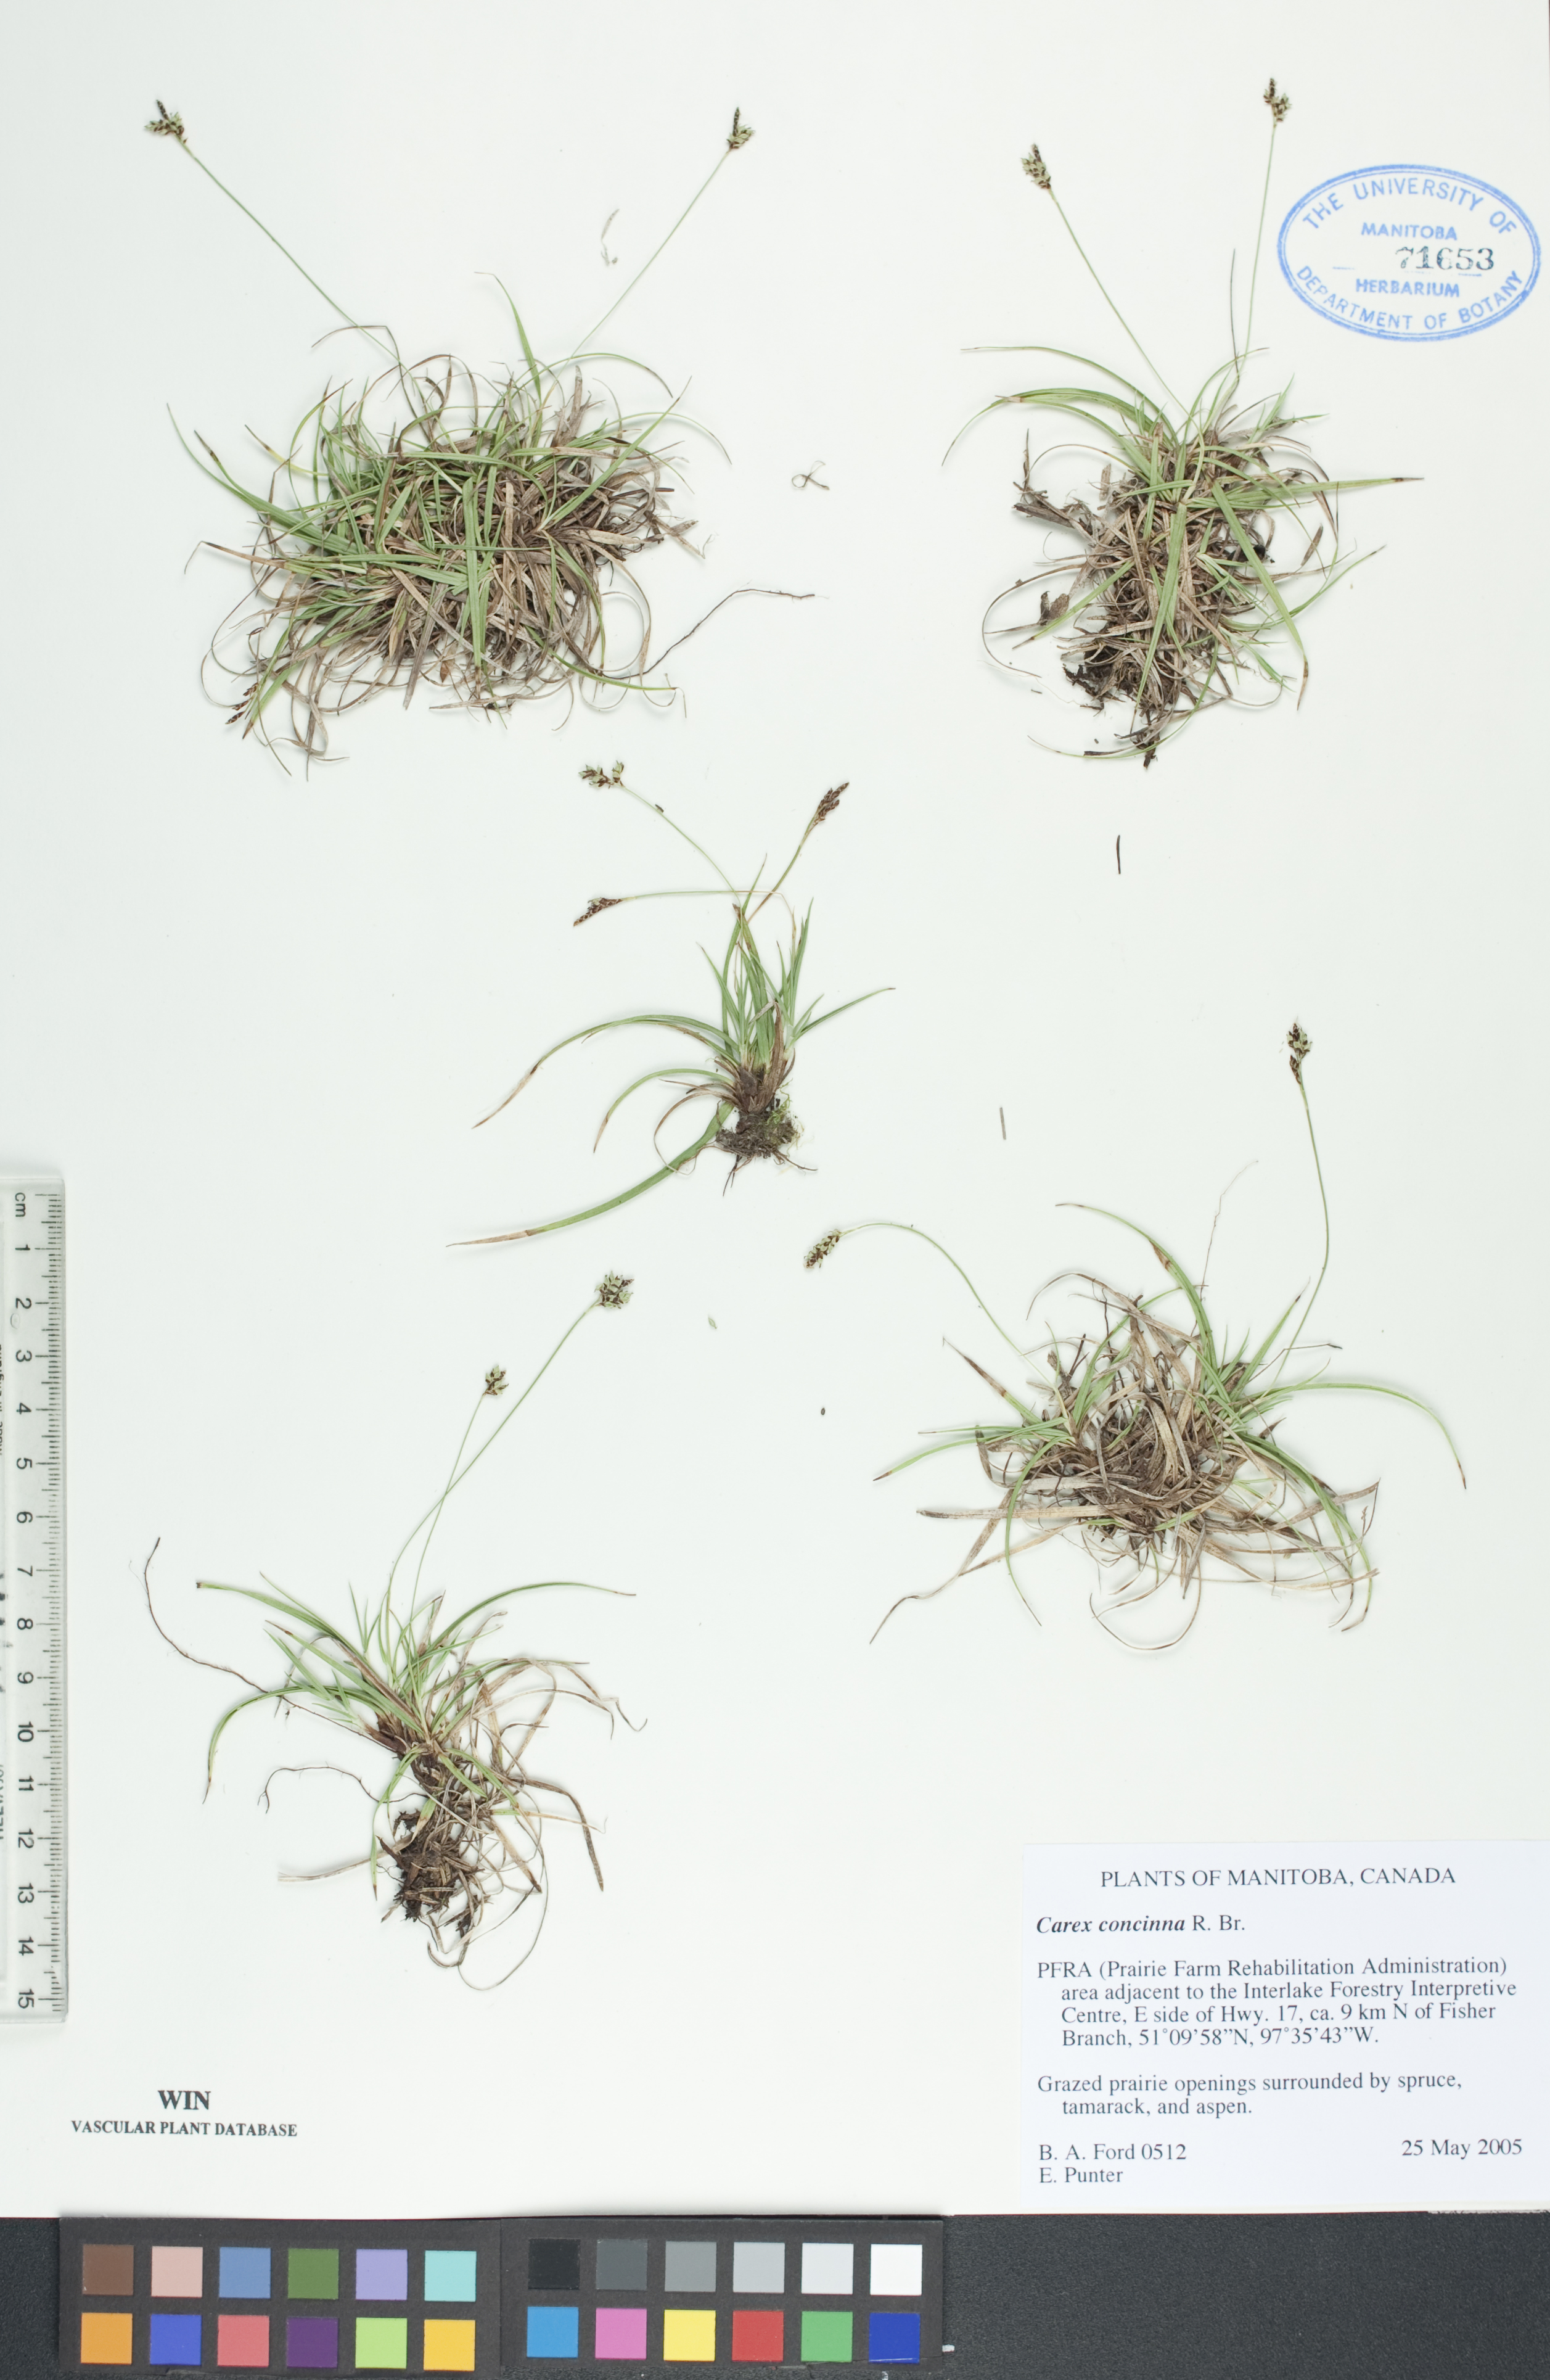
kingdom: Plantae
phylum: Tracheophyta
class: Liliopsida
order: Poales
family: Cyperaceae
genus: Carex
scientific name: Carex concinna
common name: Beautiful sedge
